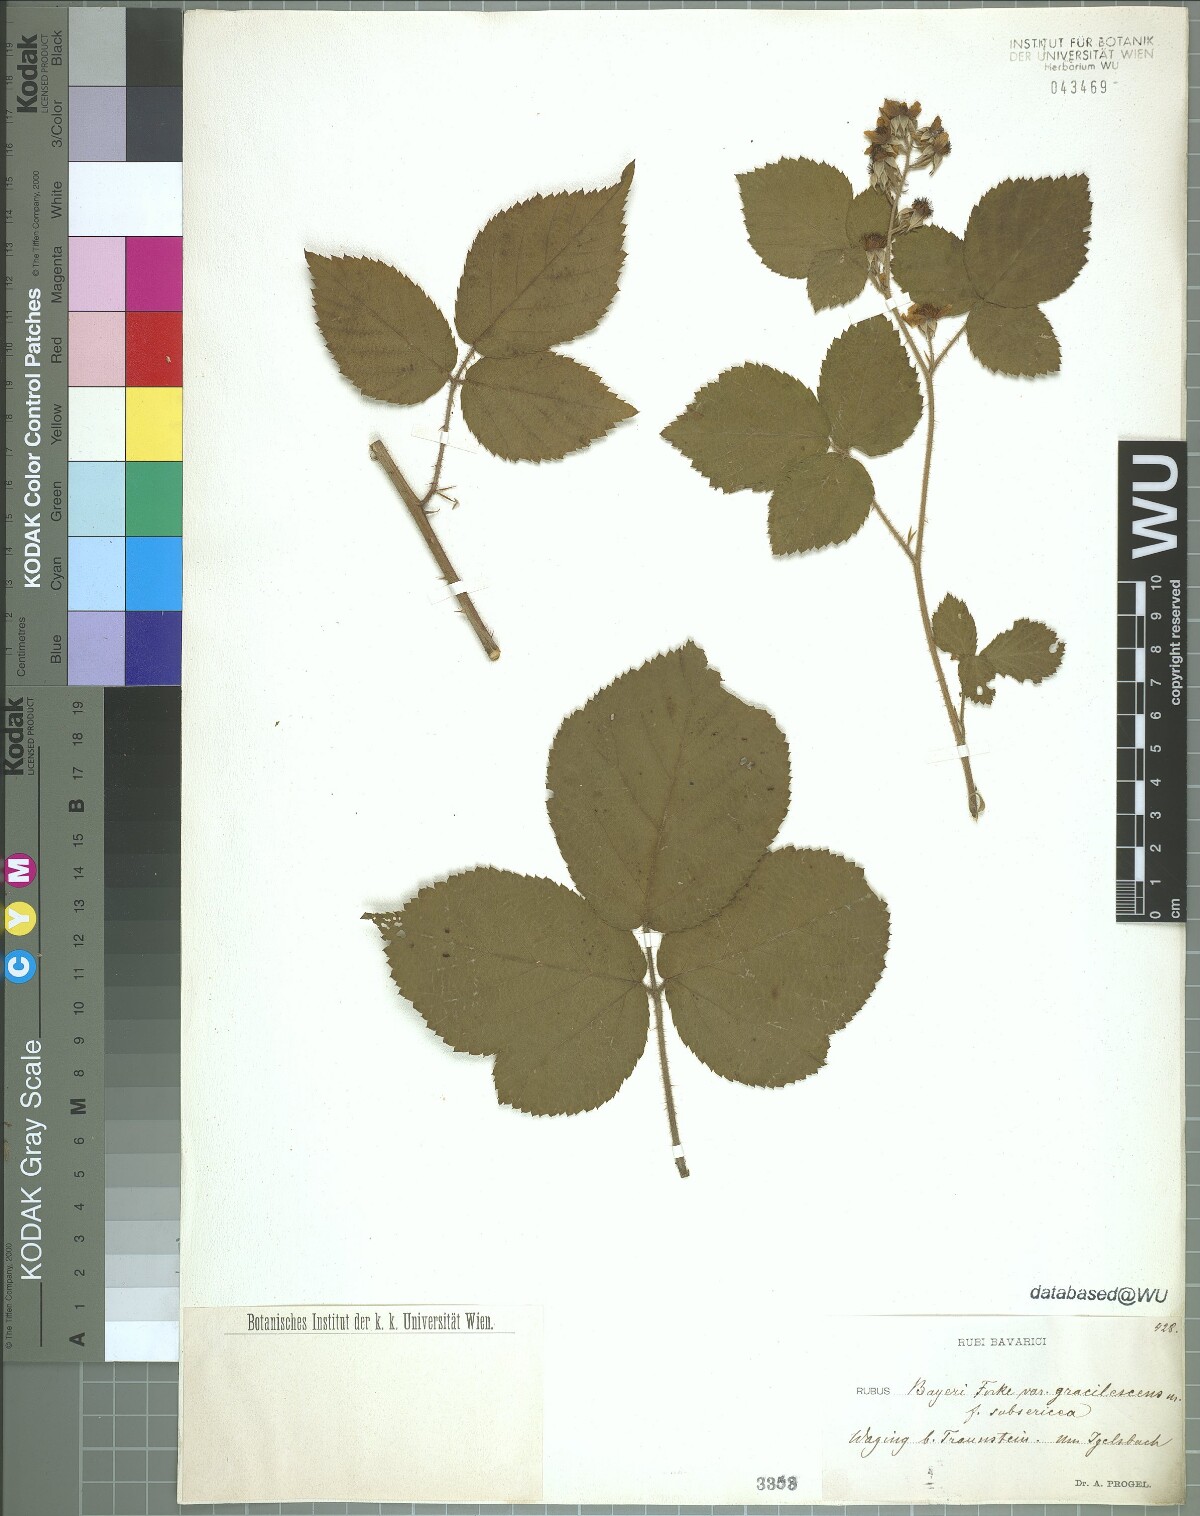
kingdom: Plantae
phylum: Tracheophyta
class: Magnoliopsida
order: Rosales
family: Rosaceae
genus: Rubus
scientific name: Rubus rivularis
